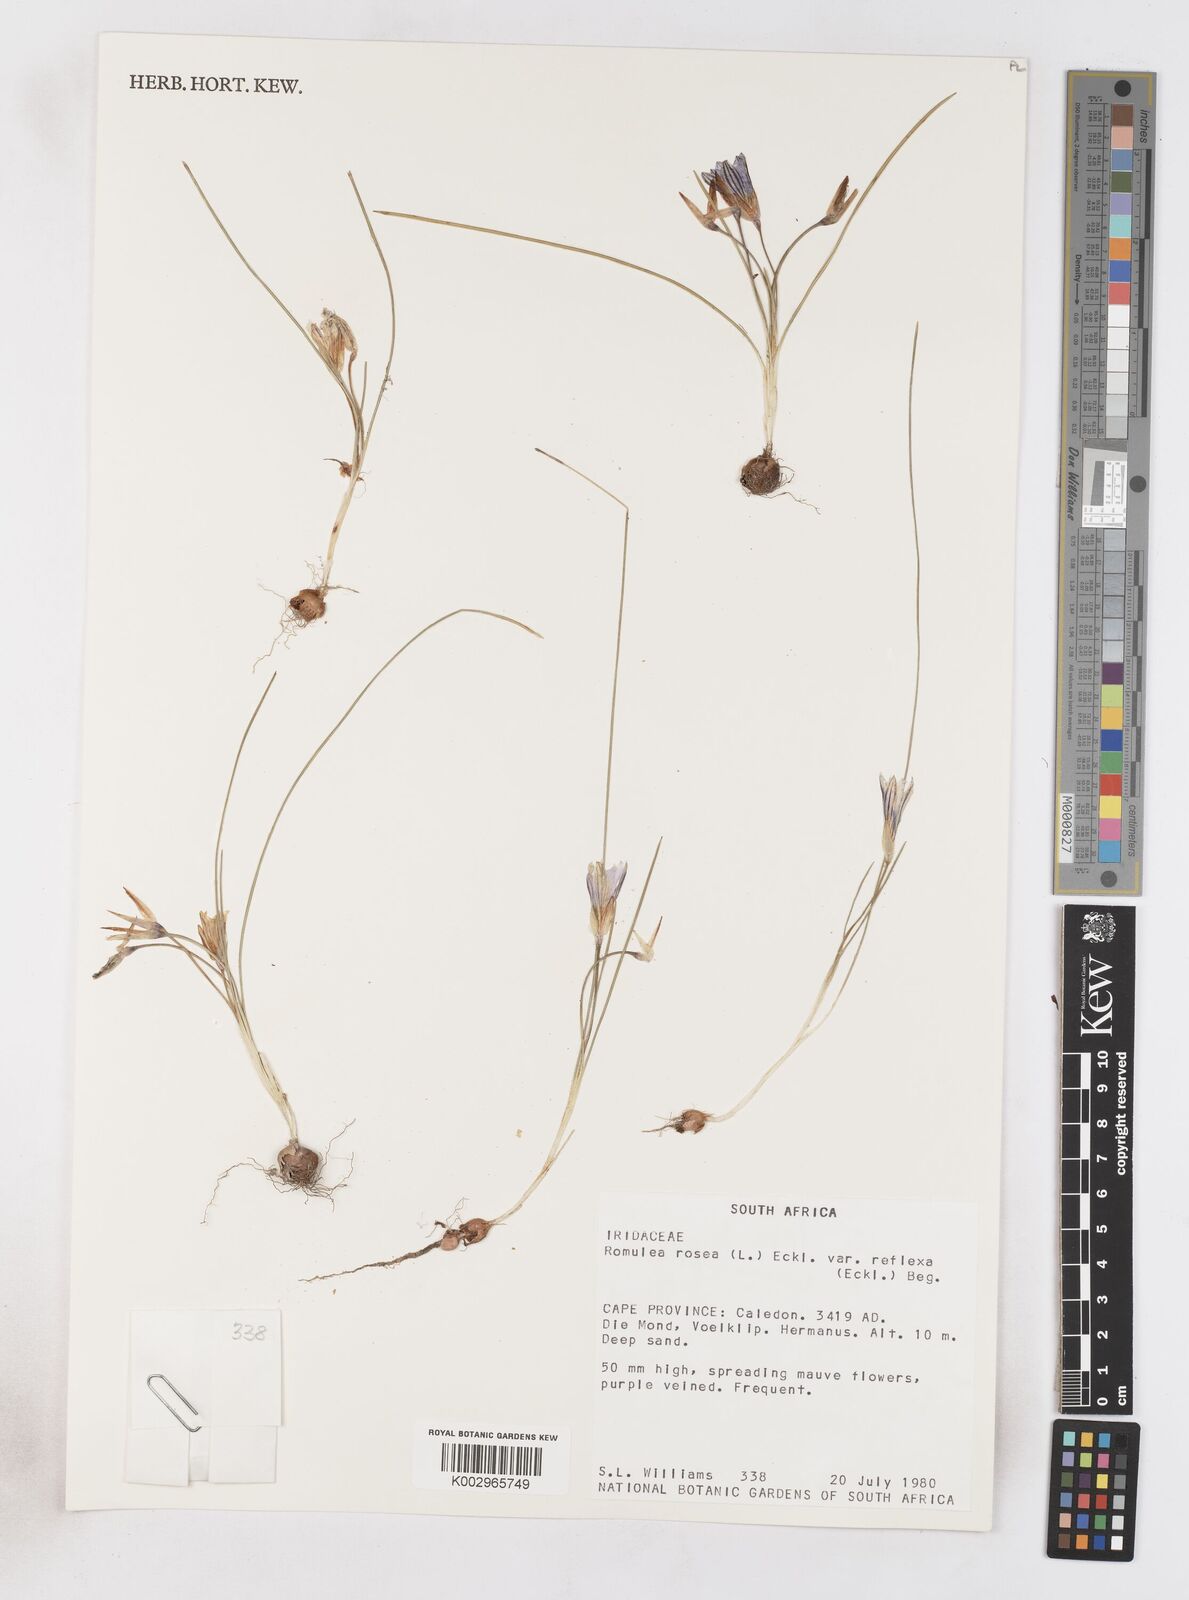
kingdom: Plantae
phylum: Tracheophyta
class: Liliopsida
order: Asparagales
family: Iridaceae
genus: Romulea
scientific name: Romulea rosea
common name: Oniongrass
